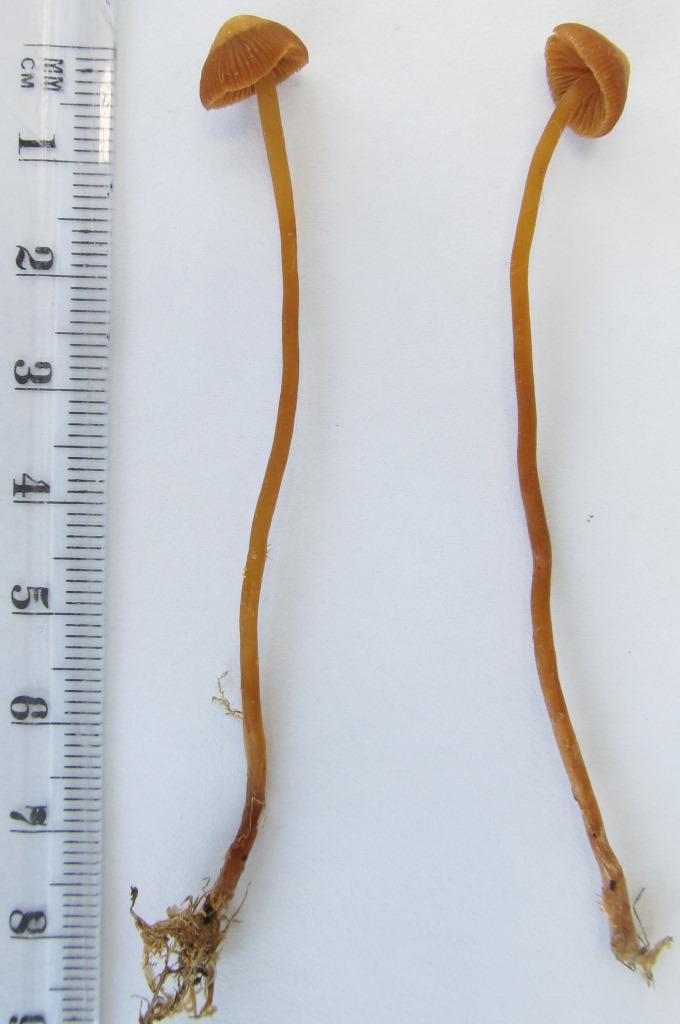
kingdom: Fungi
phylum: Basidiomycota
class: Agaricomycetes
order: Agaricales
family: Hymenogastraceae
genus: Galerina
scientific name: Galerina vittiformis
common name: Hairy leg bell
